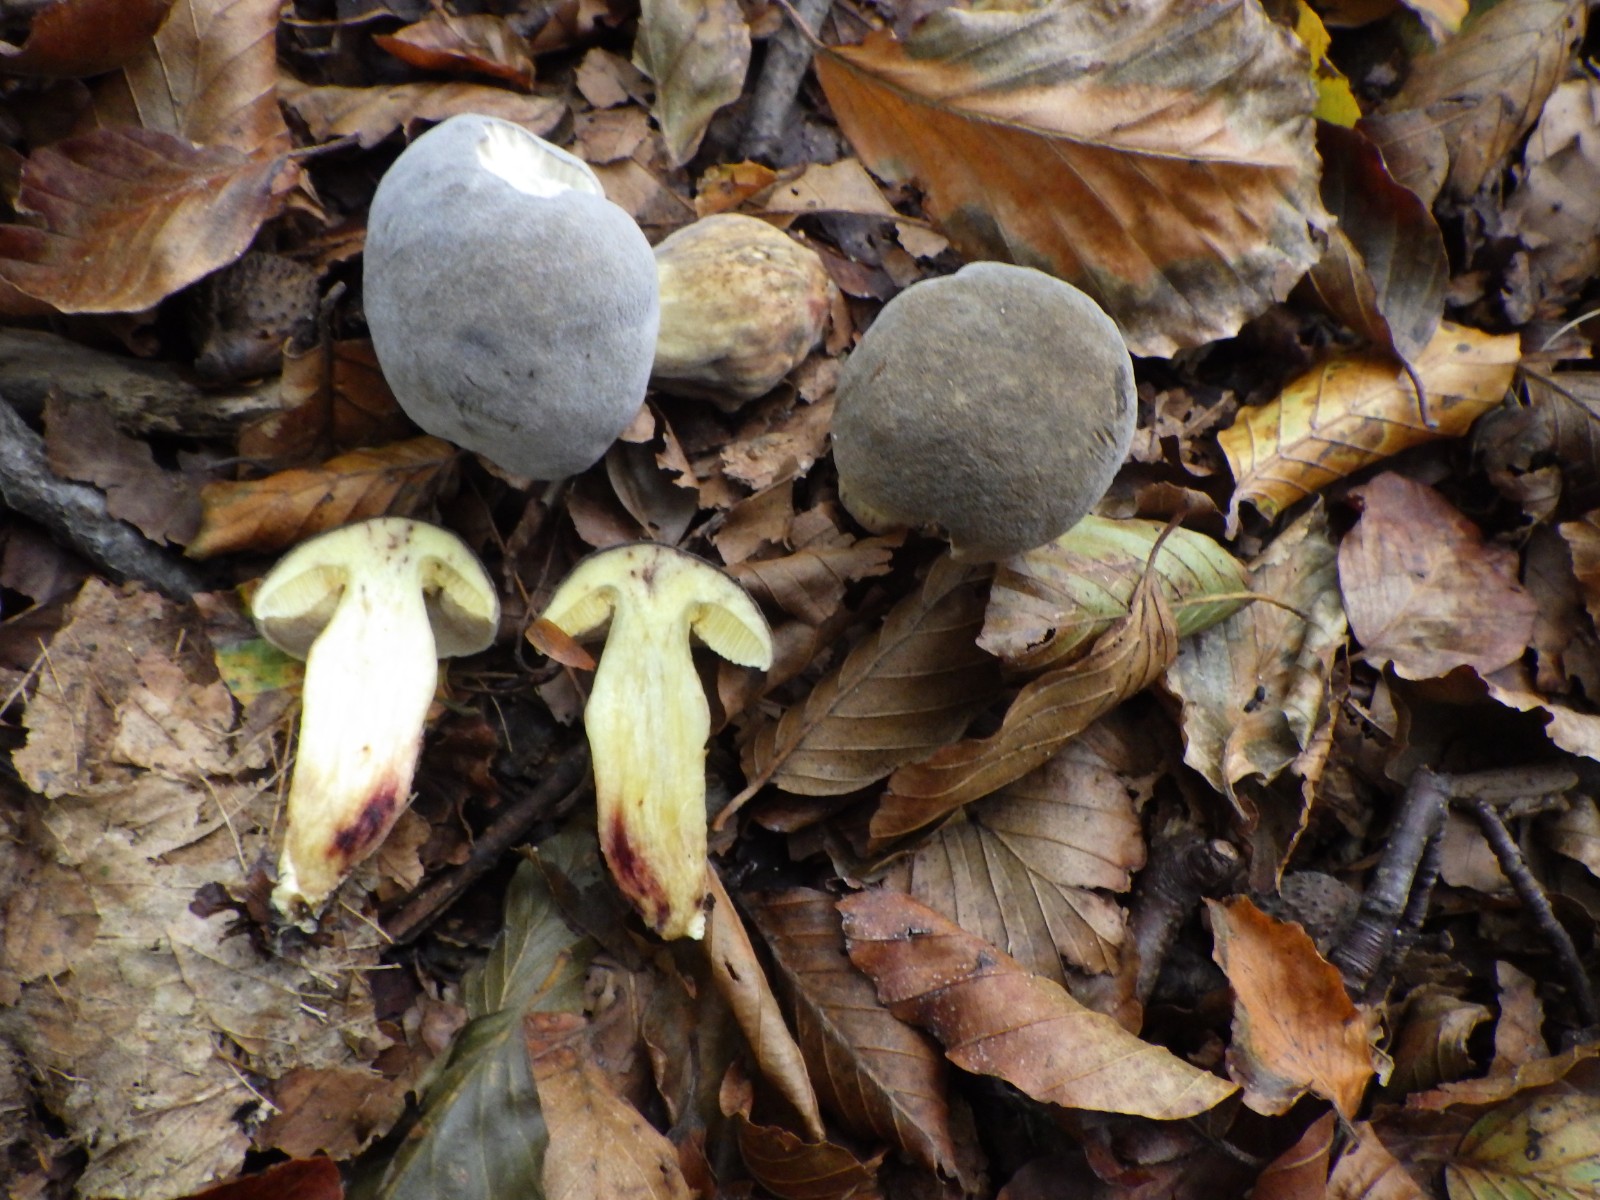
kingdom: Fungi
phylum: Basidiomycota
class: Agaricomycetes
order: Boletales
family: Boletaceae
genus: Xerocomellus
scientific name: Xerocomellus pruinatus
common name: dugget rørhat
